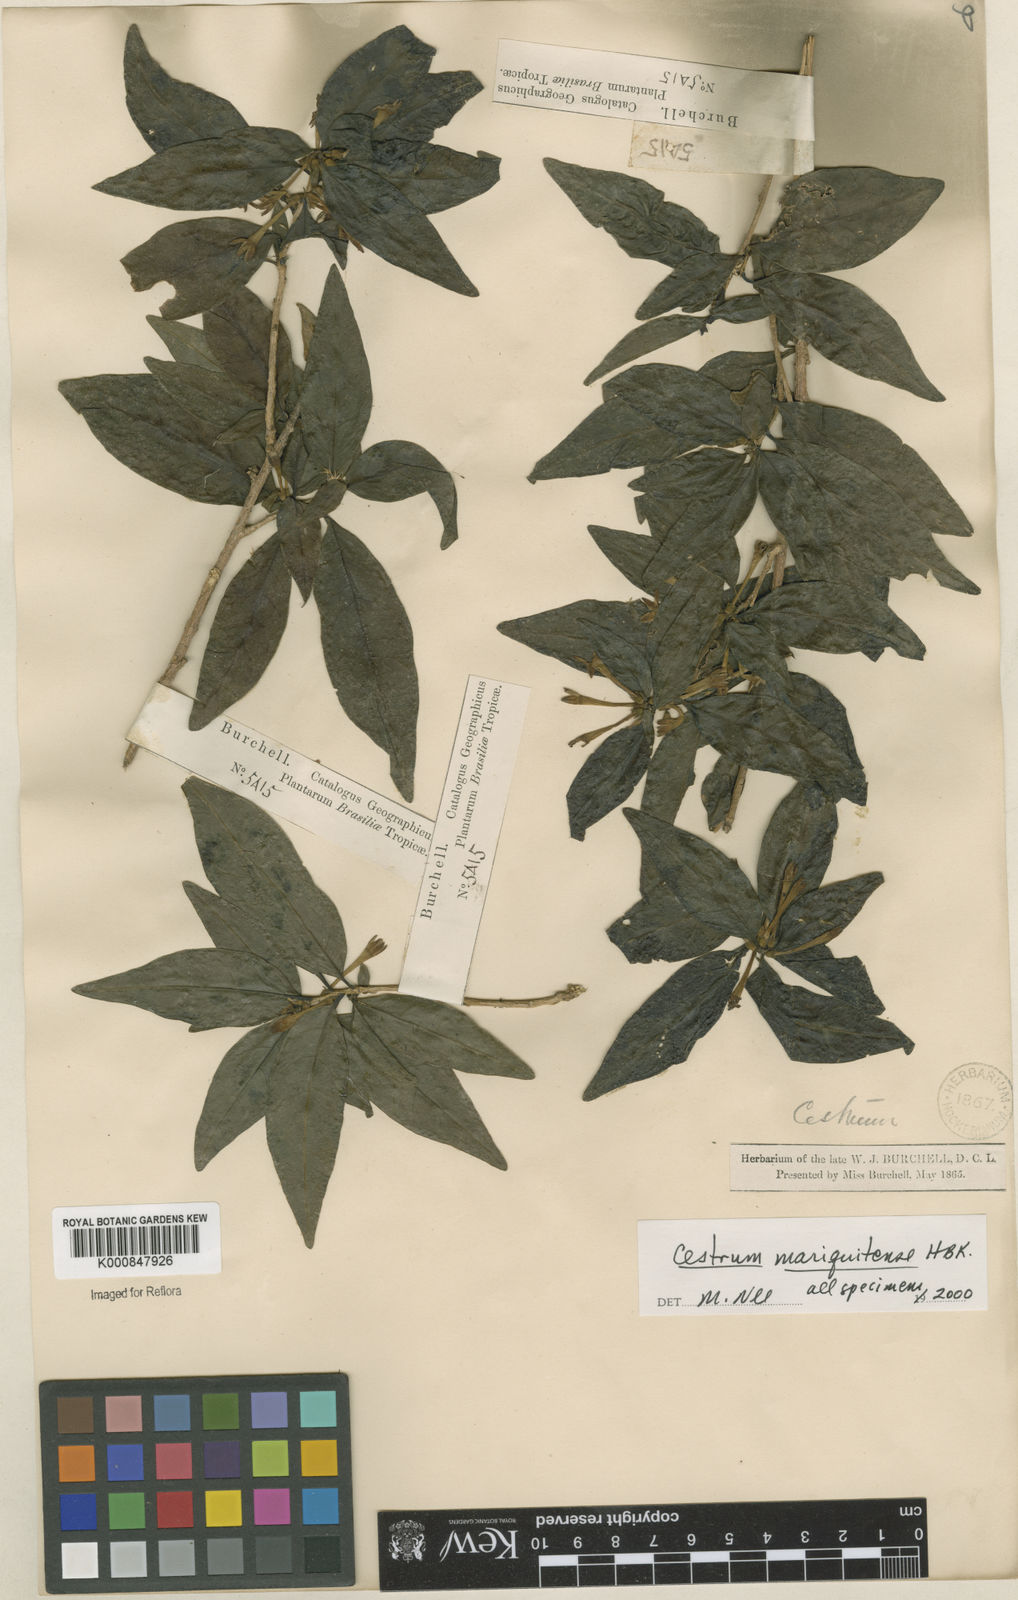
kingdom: Plantae
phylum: Tracheophyta
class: Magnoliopsida
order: Solanales
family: Solanaceae
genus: Cestrum
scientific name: Cestrum mariquitense
